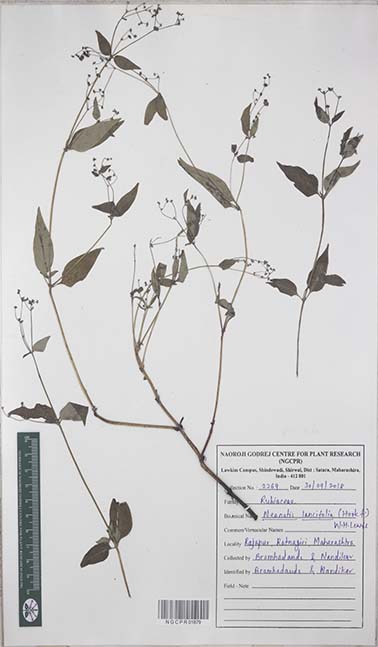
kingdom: Plantae
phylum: Tracheophyta
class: Magnoliopsida
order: Gentianales
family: Rubiaceae
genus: Neanotis
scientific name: Neanotis lancifolia
